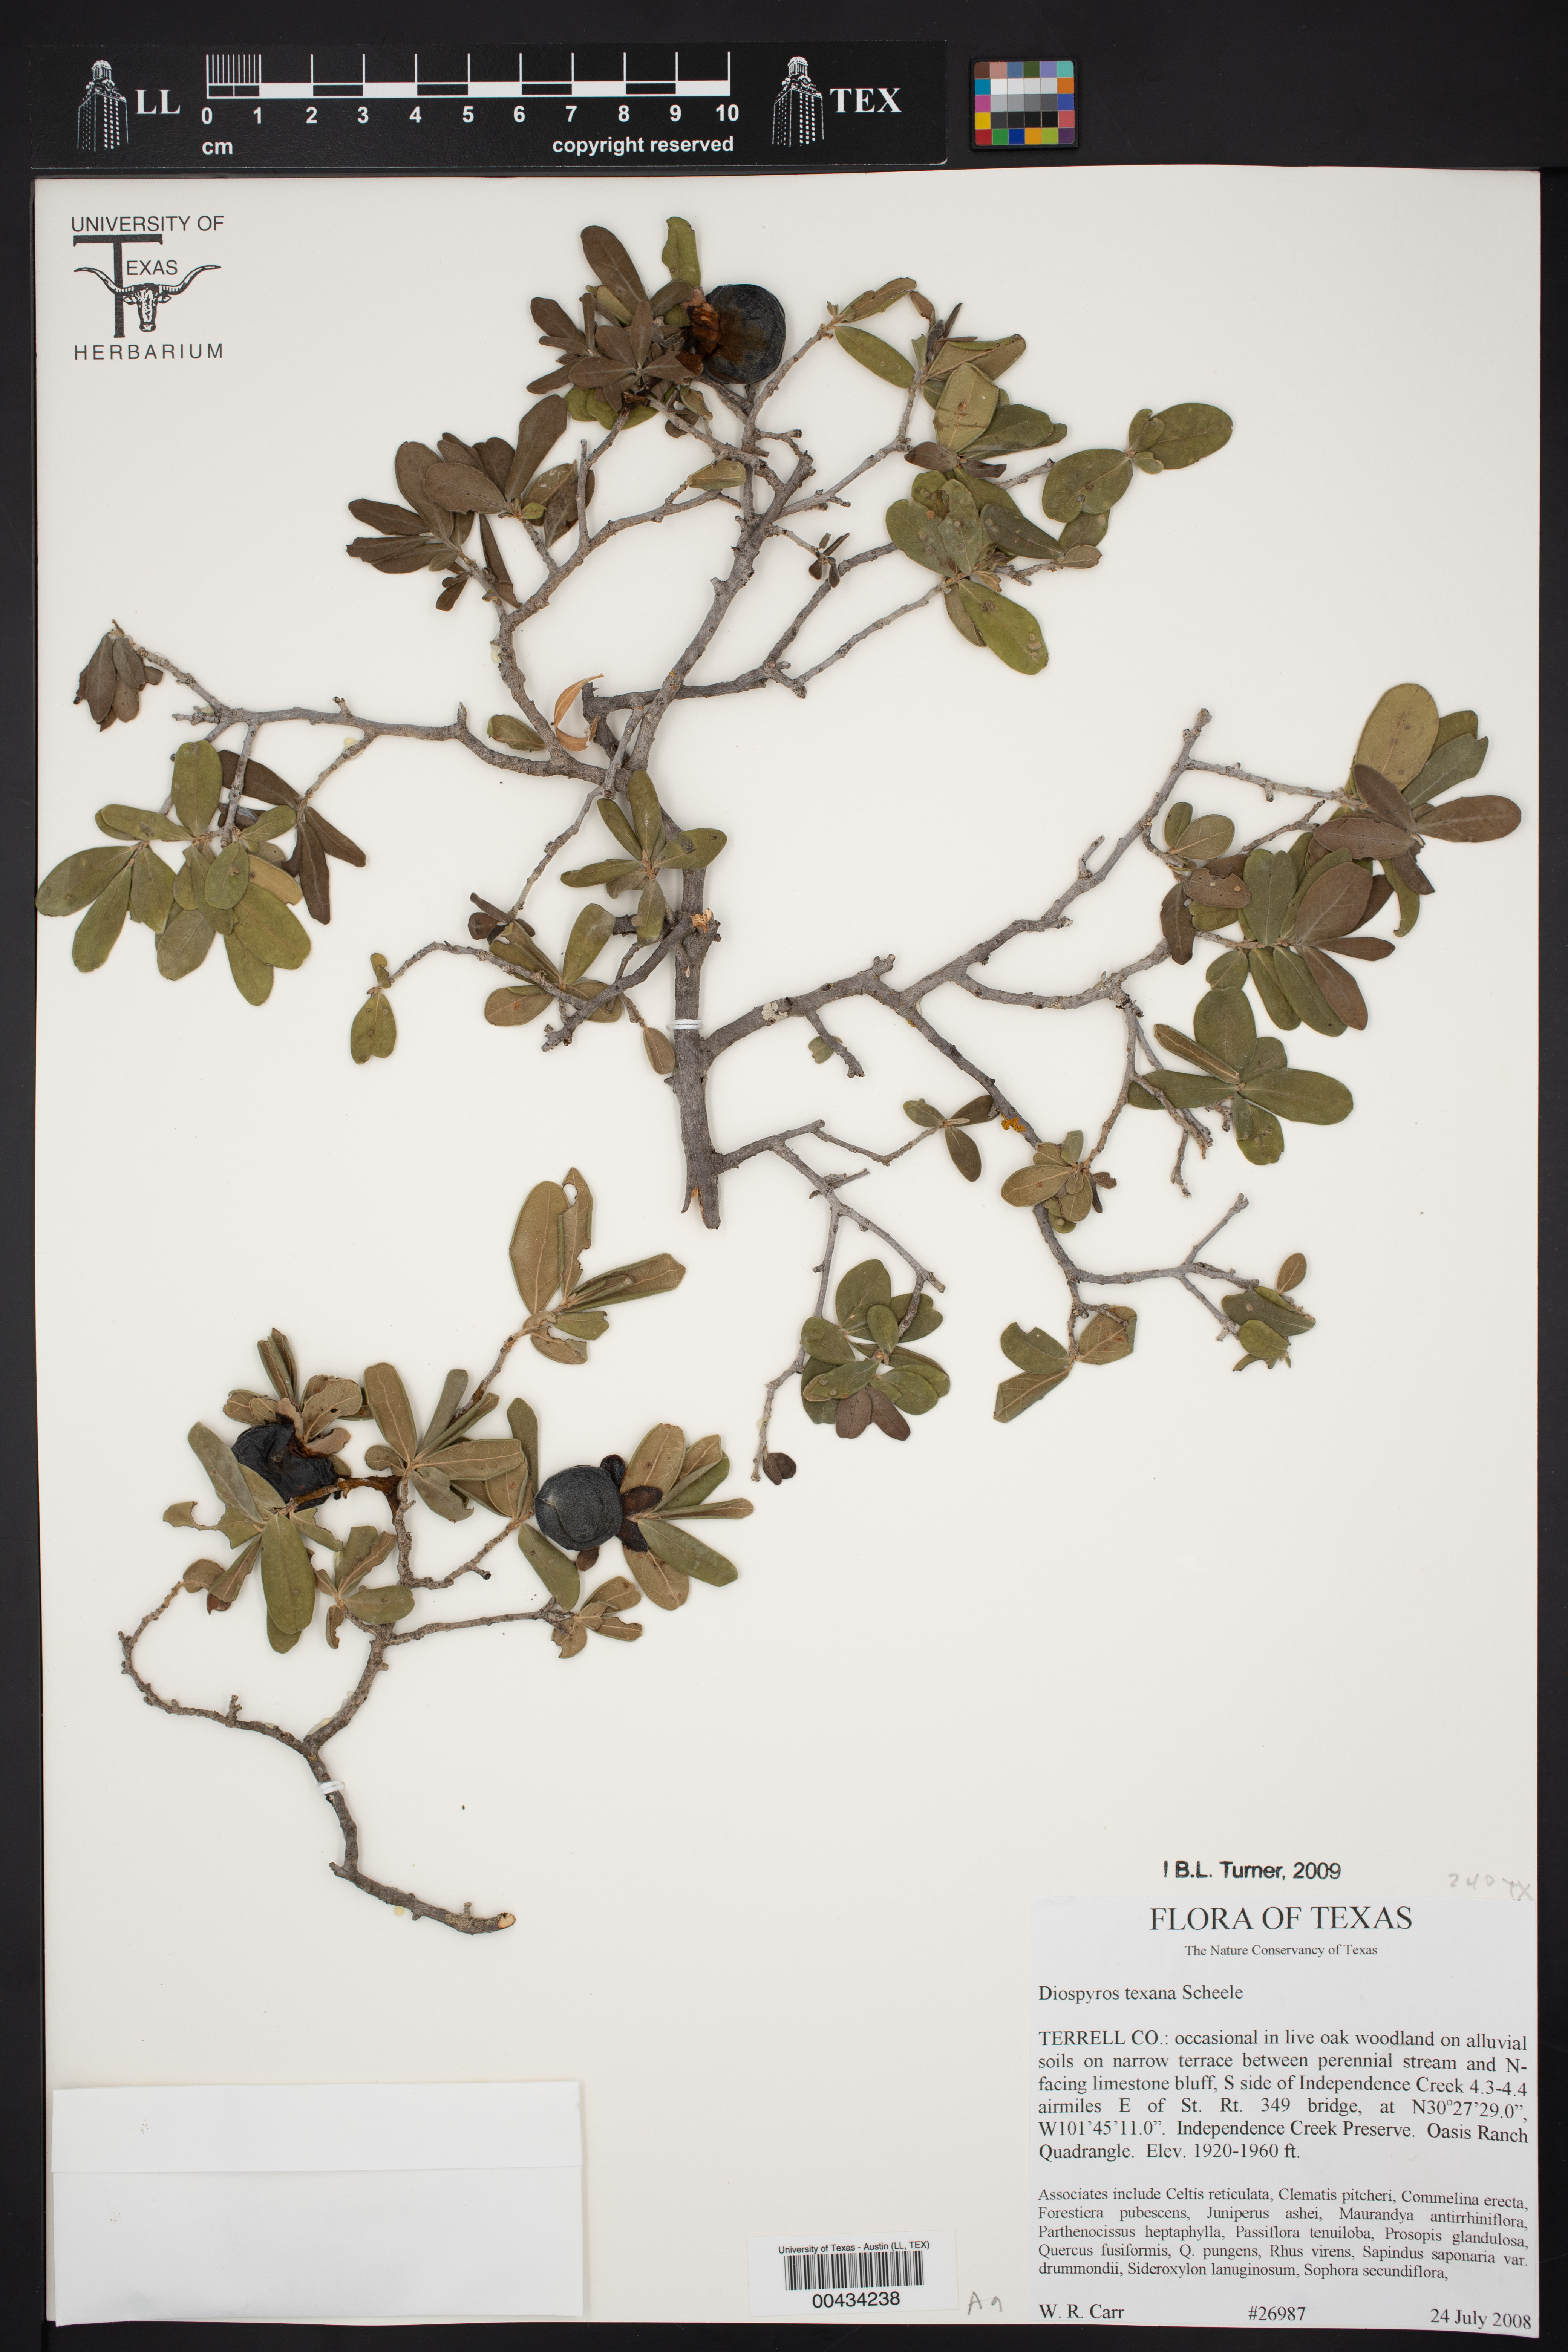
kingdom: Plantae
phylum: Tracheophyta
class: Magnoliopsida
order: Ericales
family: Ebenaceae
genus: Diospyros
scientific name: Diospyros texana
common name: Texas persimmon
